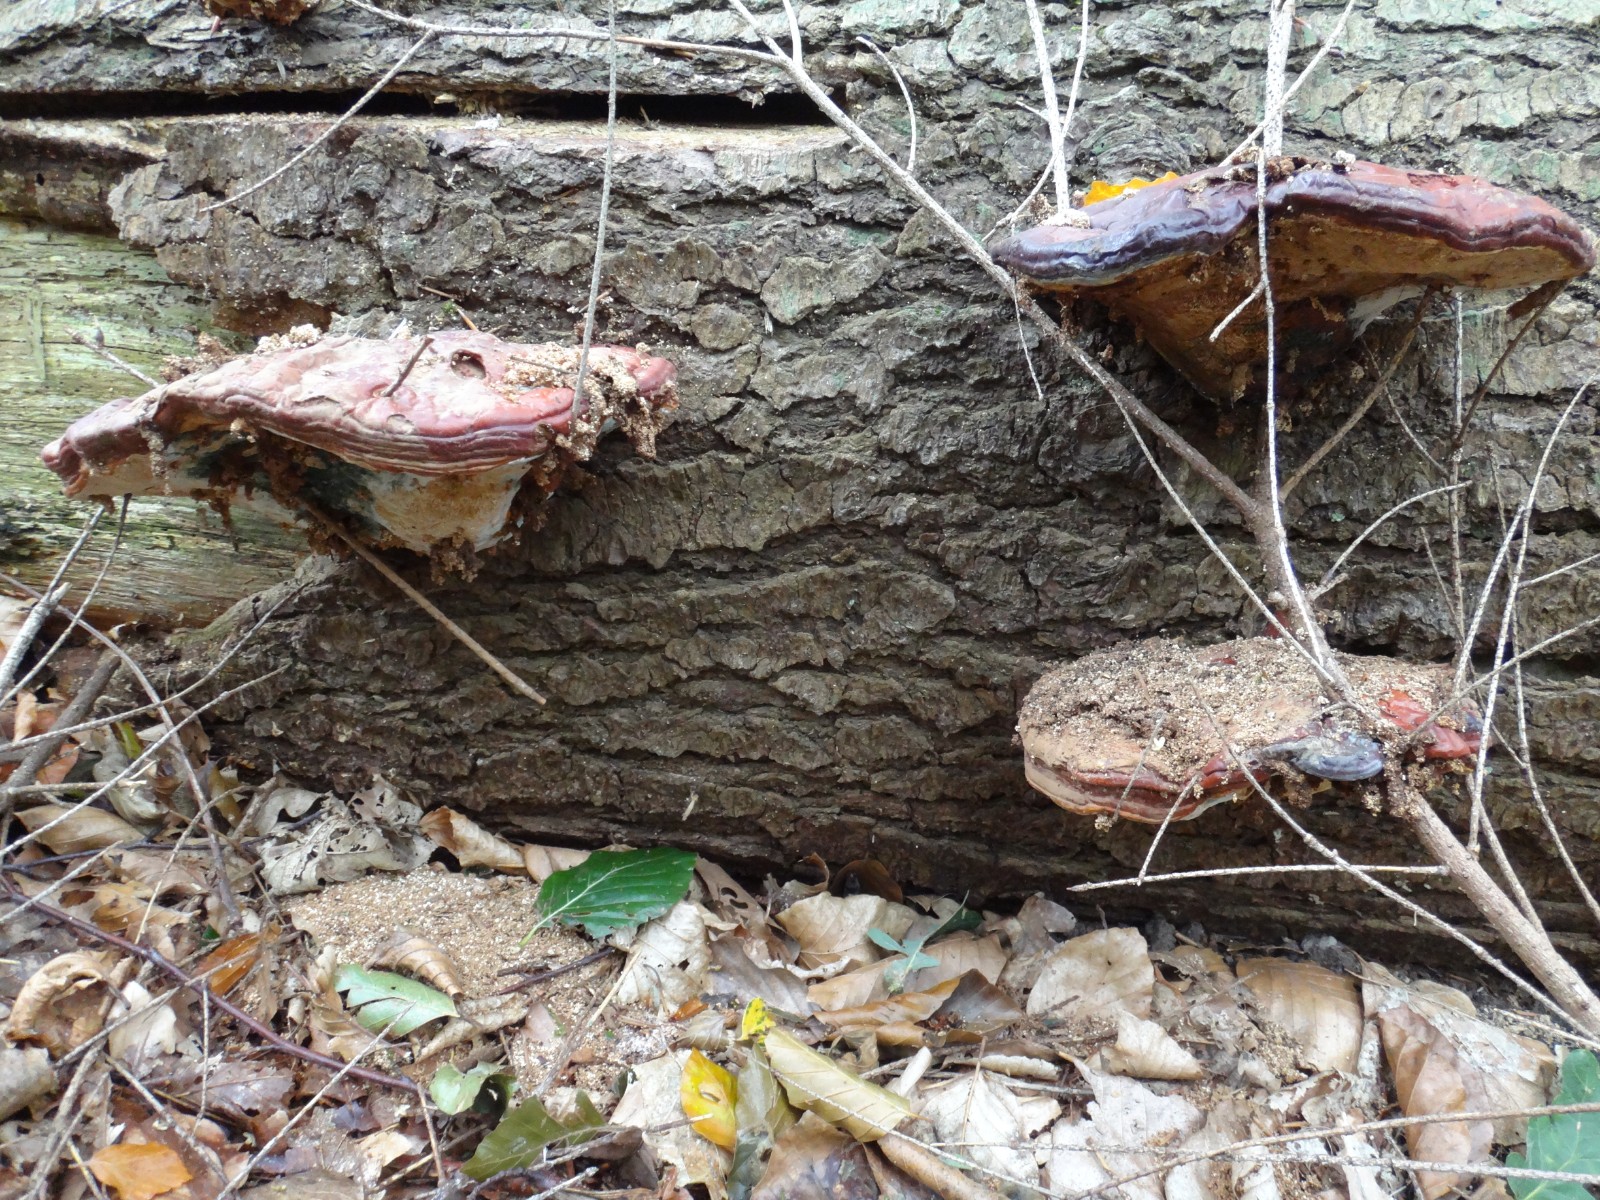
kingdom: Fungi
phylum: Basidiomycota
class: Agaricomycetes
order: Polyporales
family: Polyporaceae
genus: Ganoderma
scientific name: Ganoderma lucidum
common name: skinnende lakporesvamp
